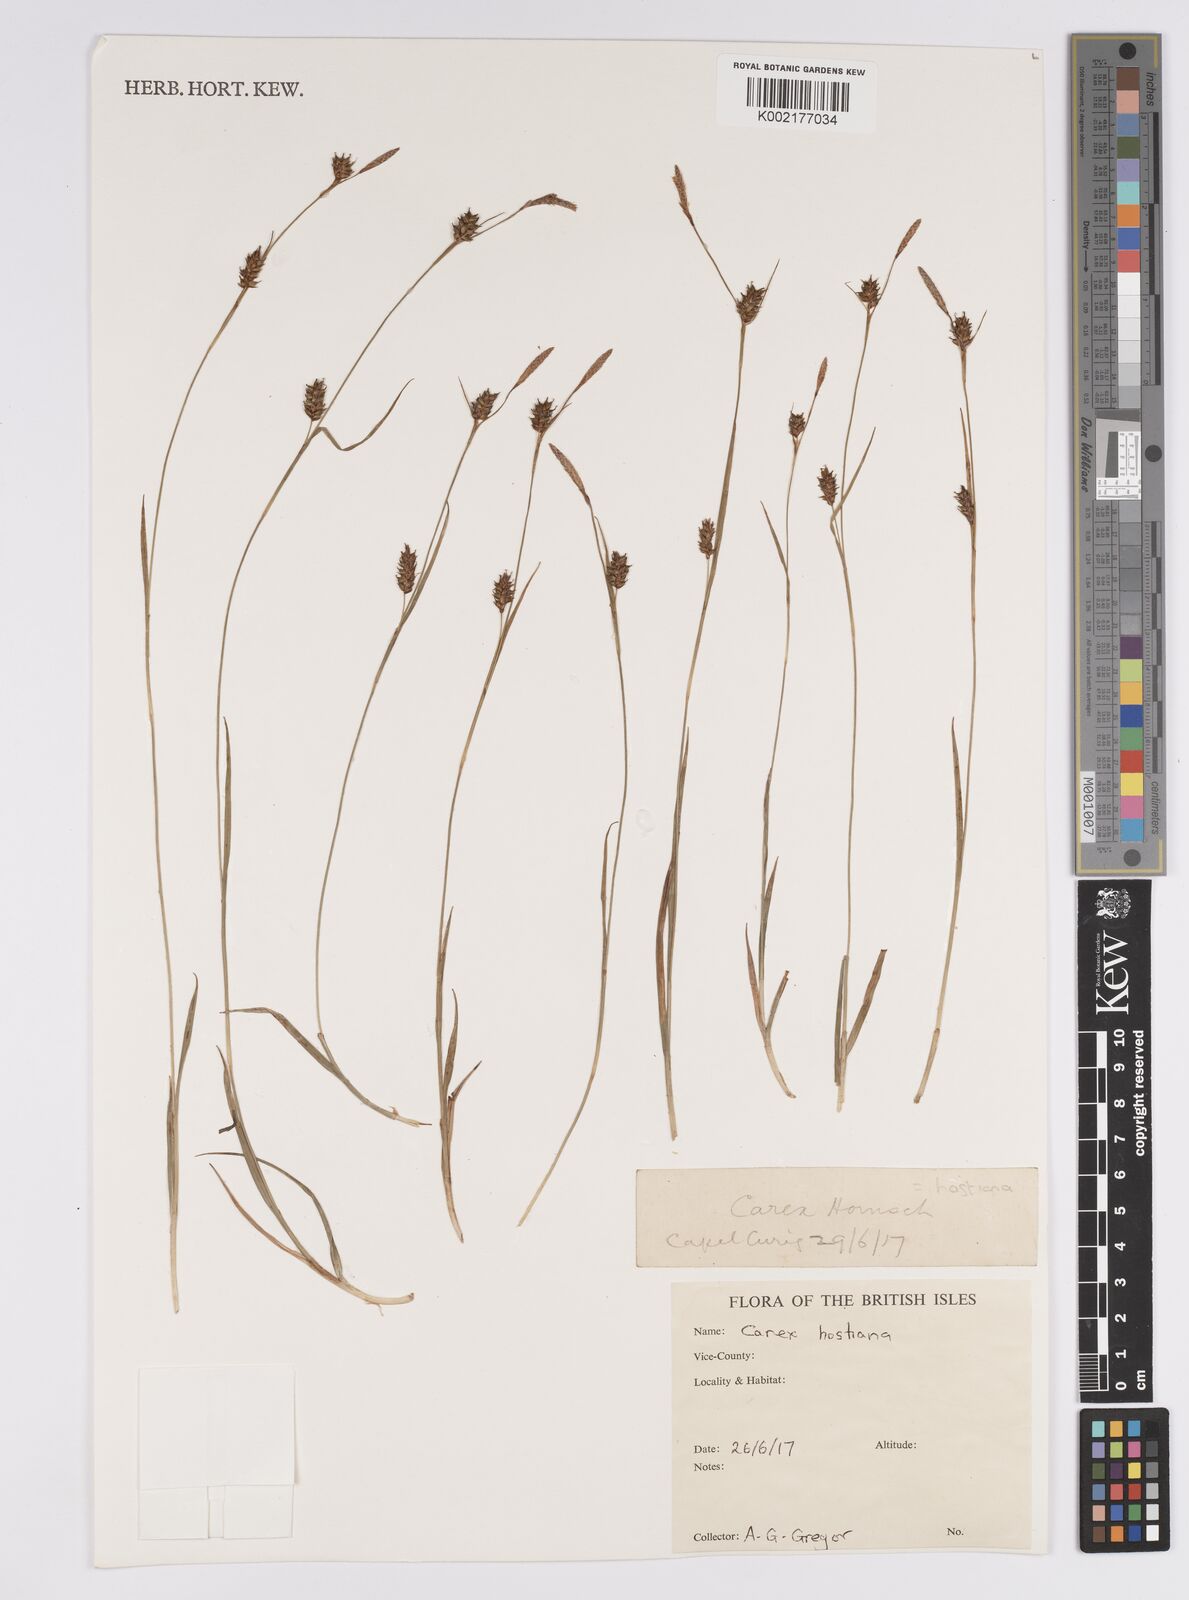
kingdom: Plantae
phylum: Tracheophyta
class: Liliopsida
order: Poales
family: Cyperaceae
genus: Carex
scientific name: Carex hostiana
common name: Tawny sedge
